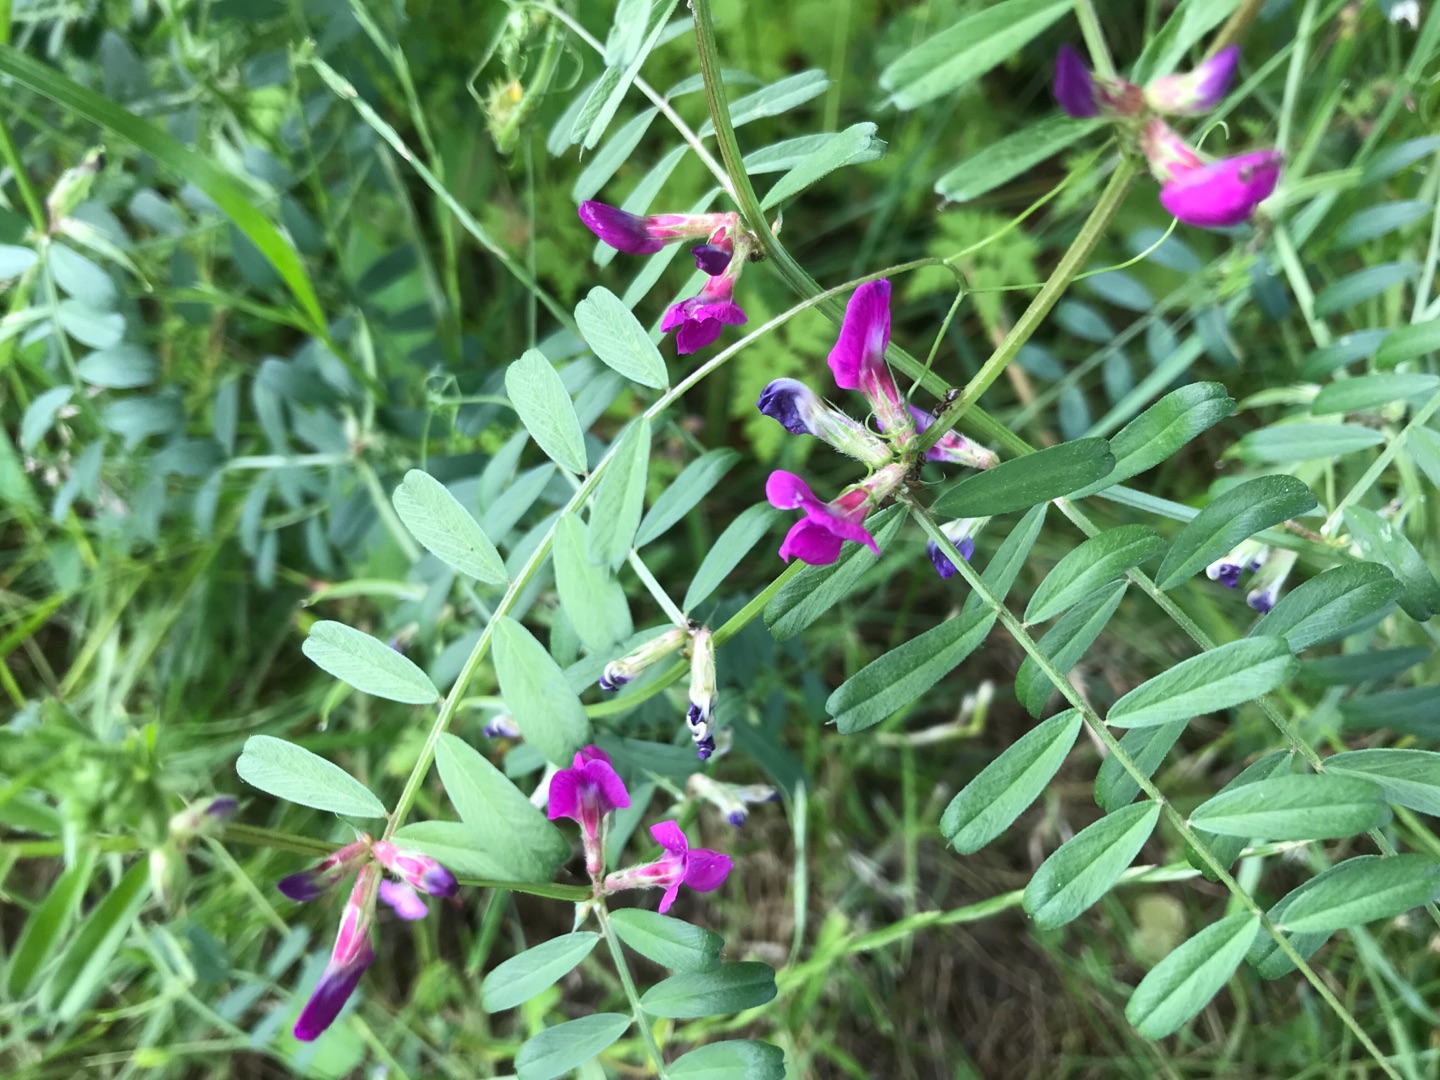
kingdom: Plantae
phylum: Tracheophyta
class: Magnoliopsida
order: Fabales
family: Fabaceae
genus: Vicia
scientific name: Vicia sativa
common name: Foder-vikke
